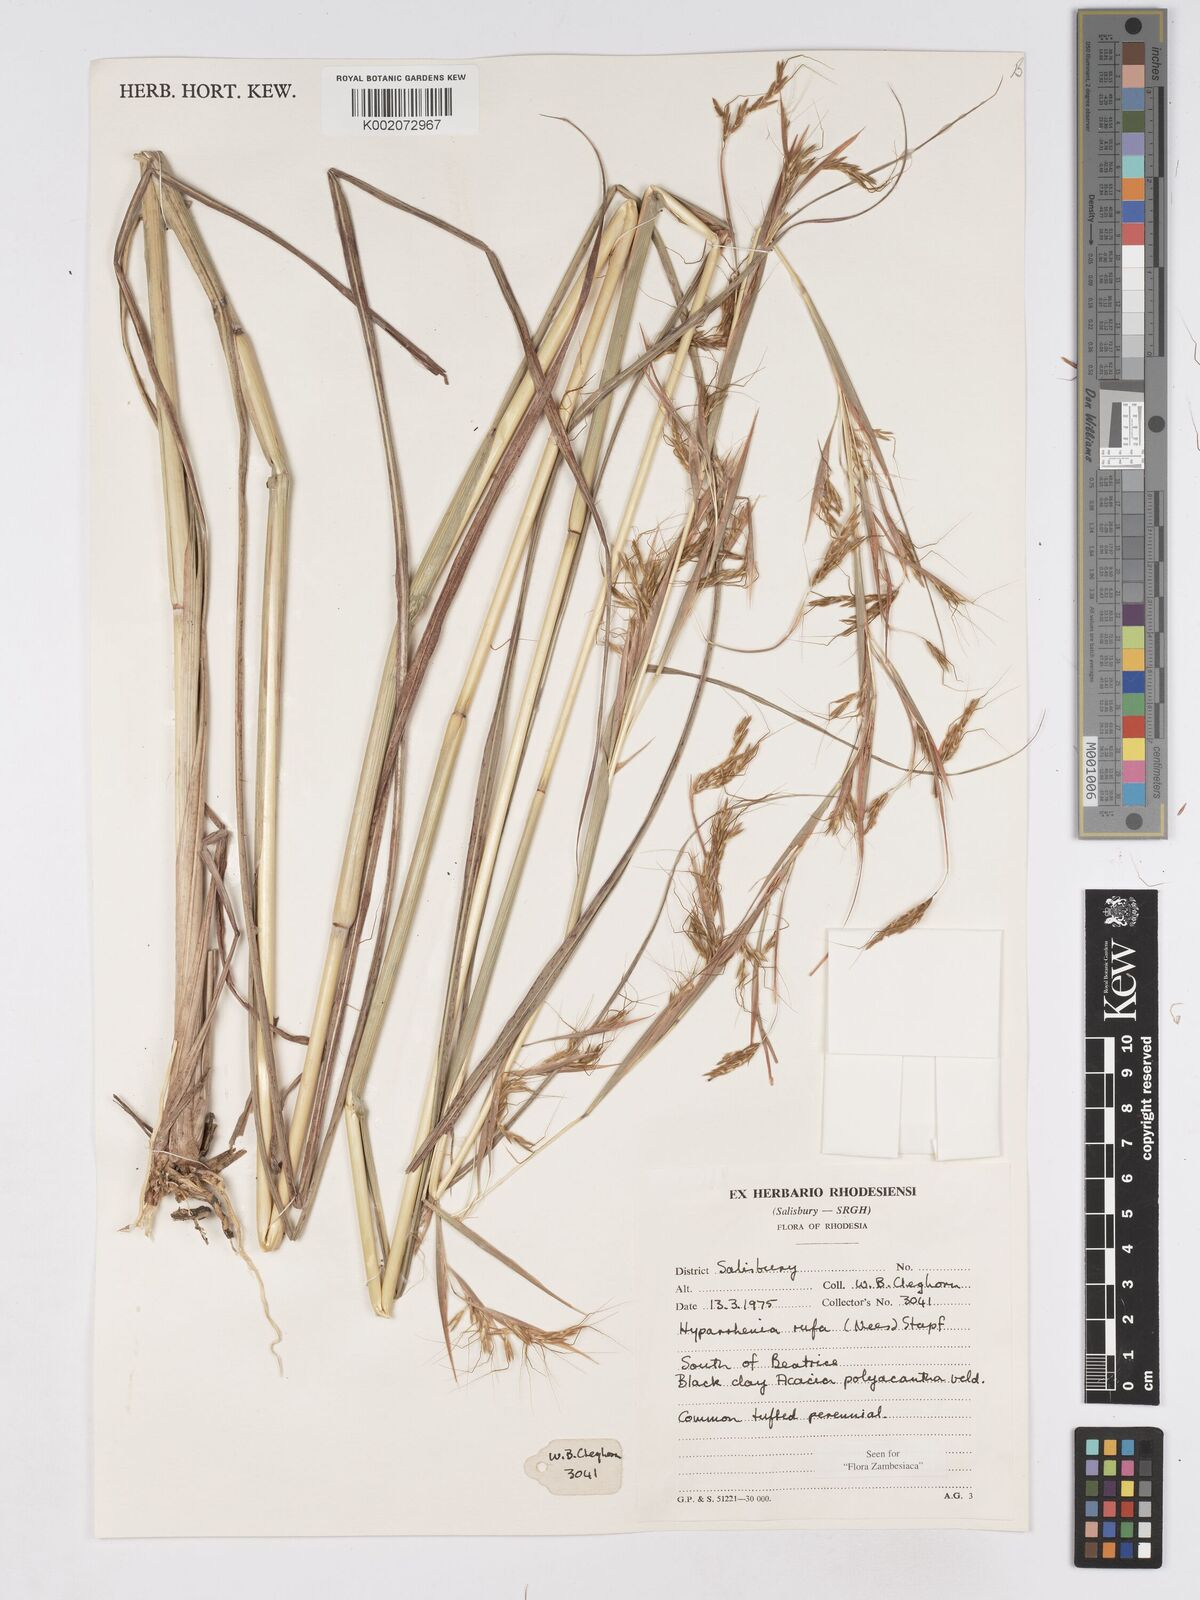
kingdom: Plantae
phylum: Tracheophyta
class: Liliopsida
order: Poales
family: Poaceae
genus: Hyparrhenia
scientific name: Hyparrhenia rufa
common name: Jaraguagrass
